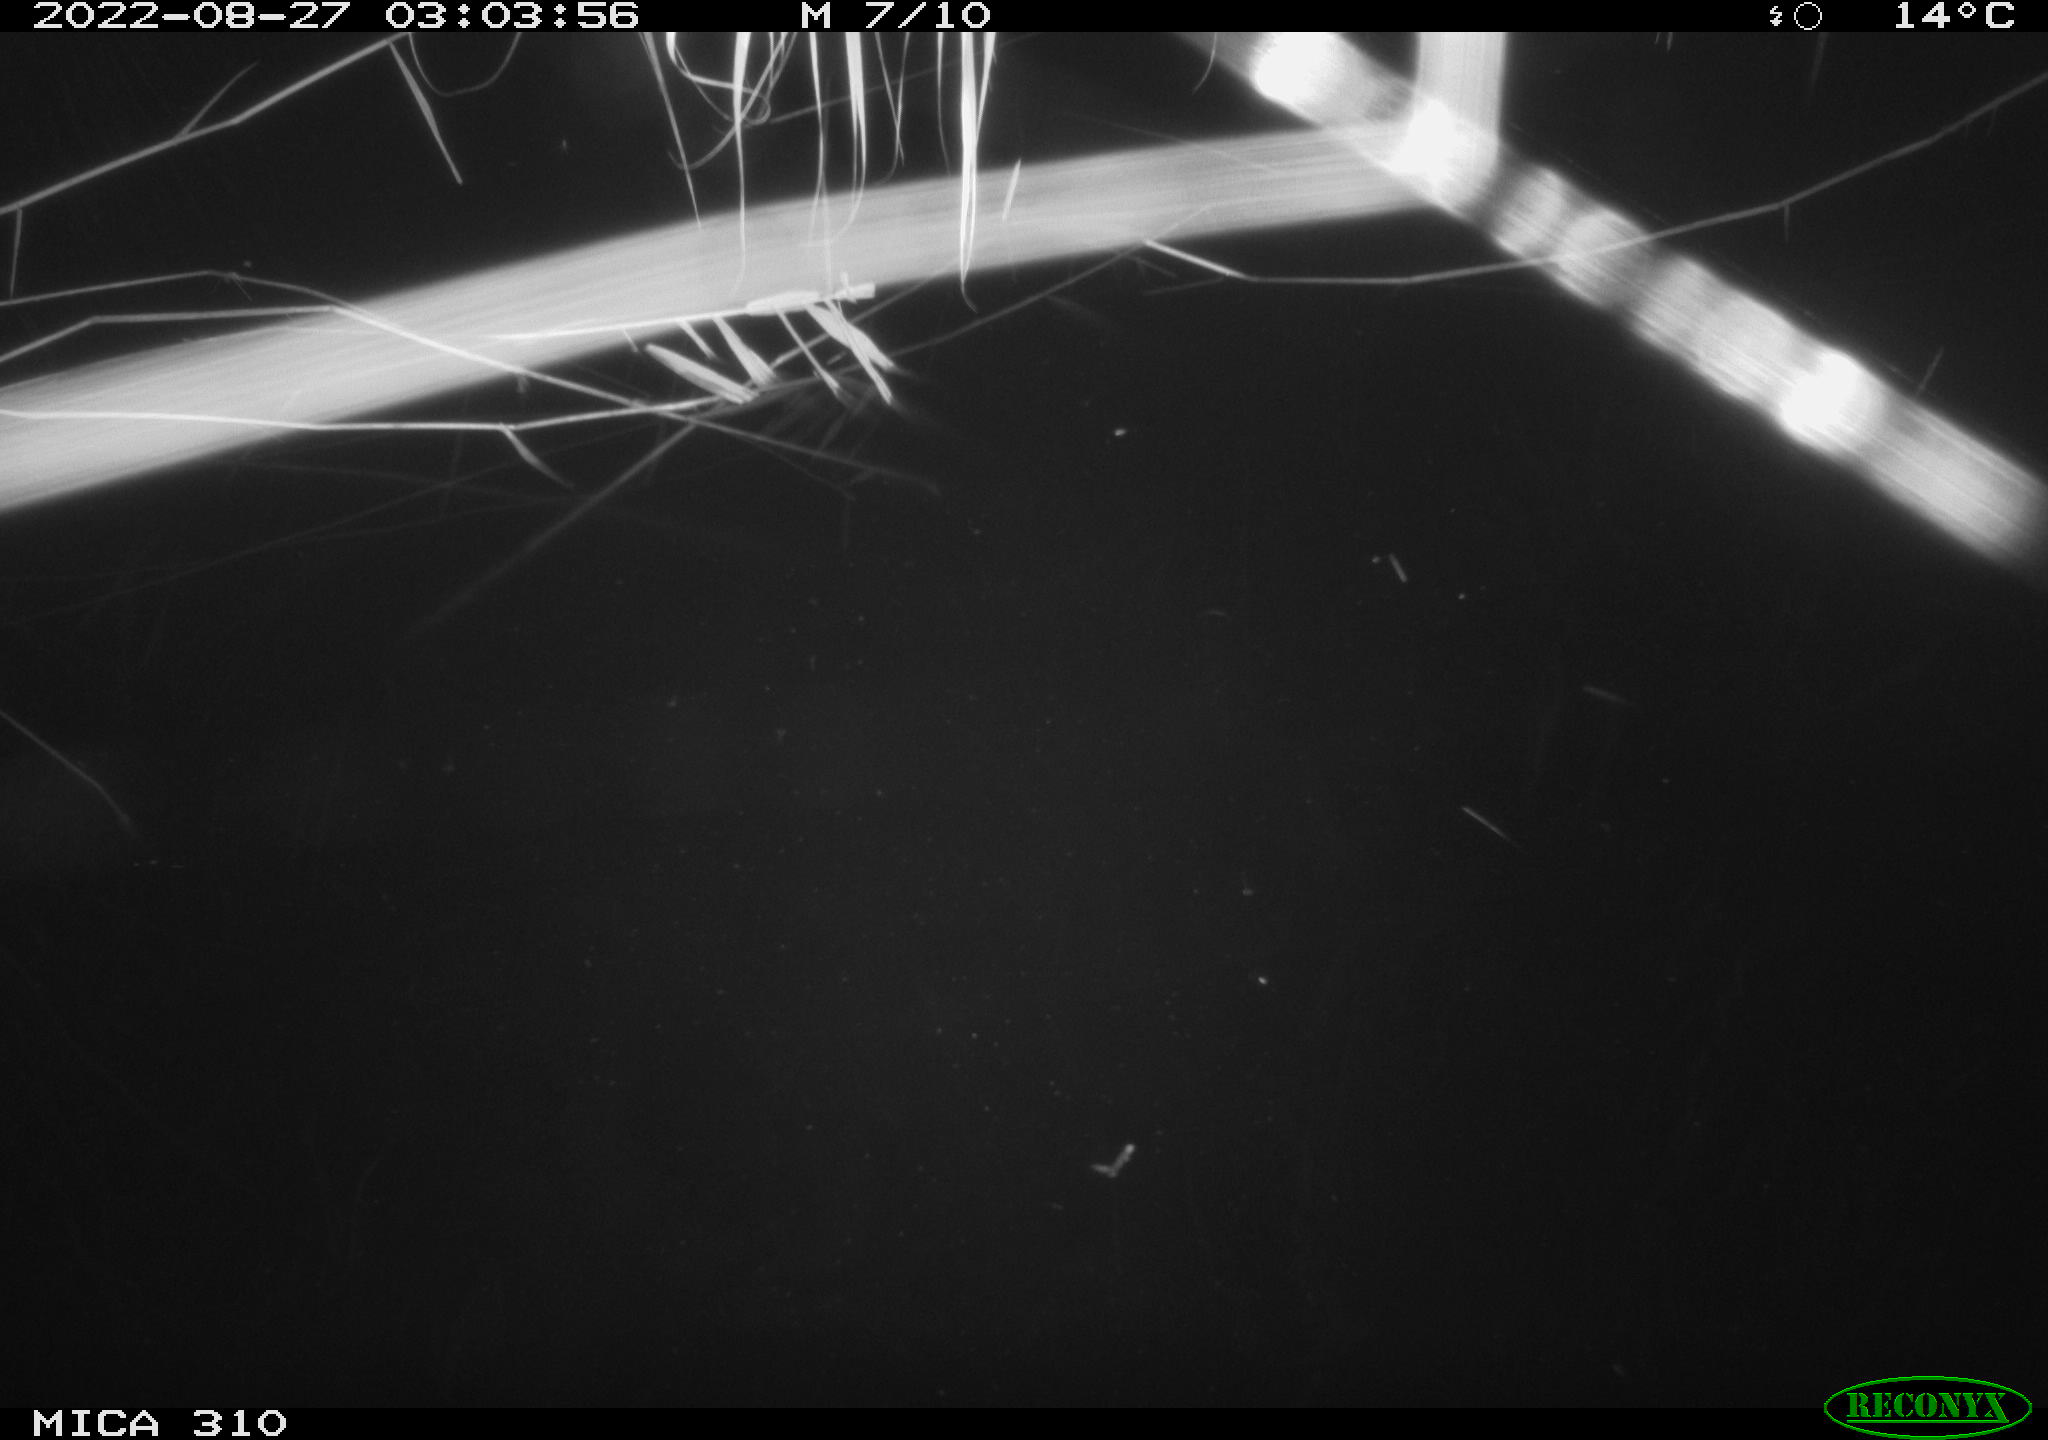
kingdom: Animalia
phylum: Chordata
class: Aves
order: Anseriformes
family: Anatidae
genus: Anas
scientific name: Anas platyrhynchos
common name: Mallard
